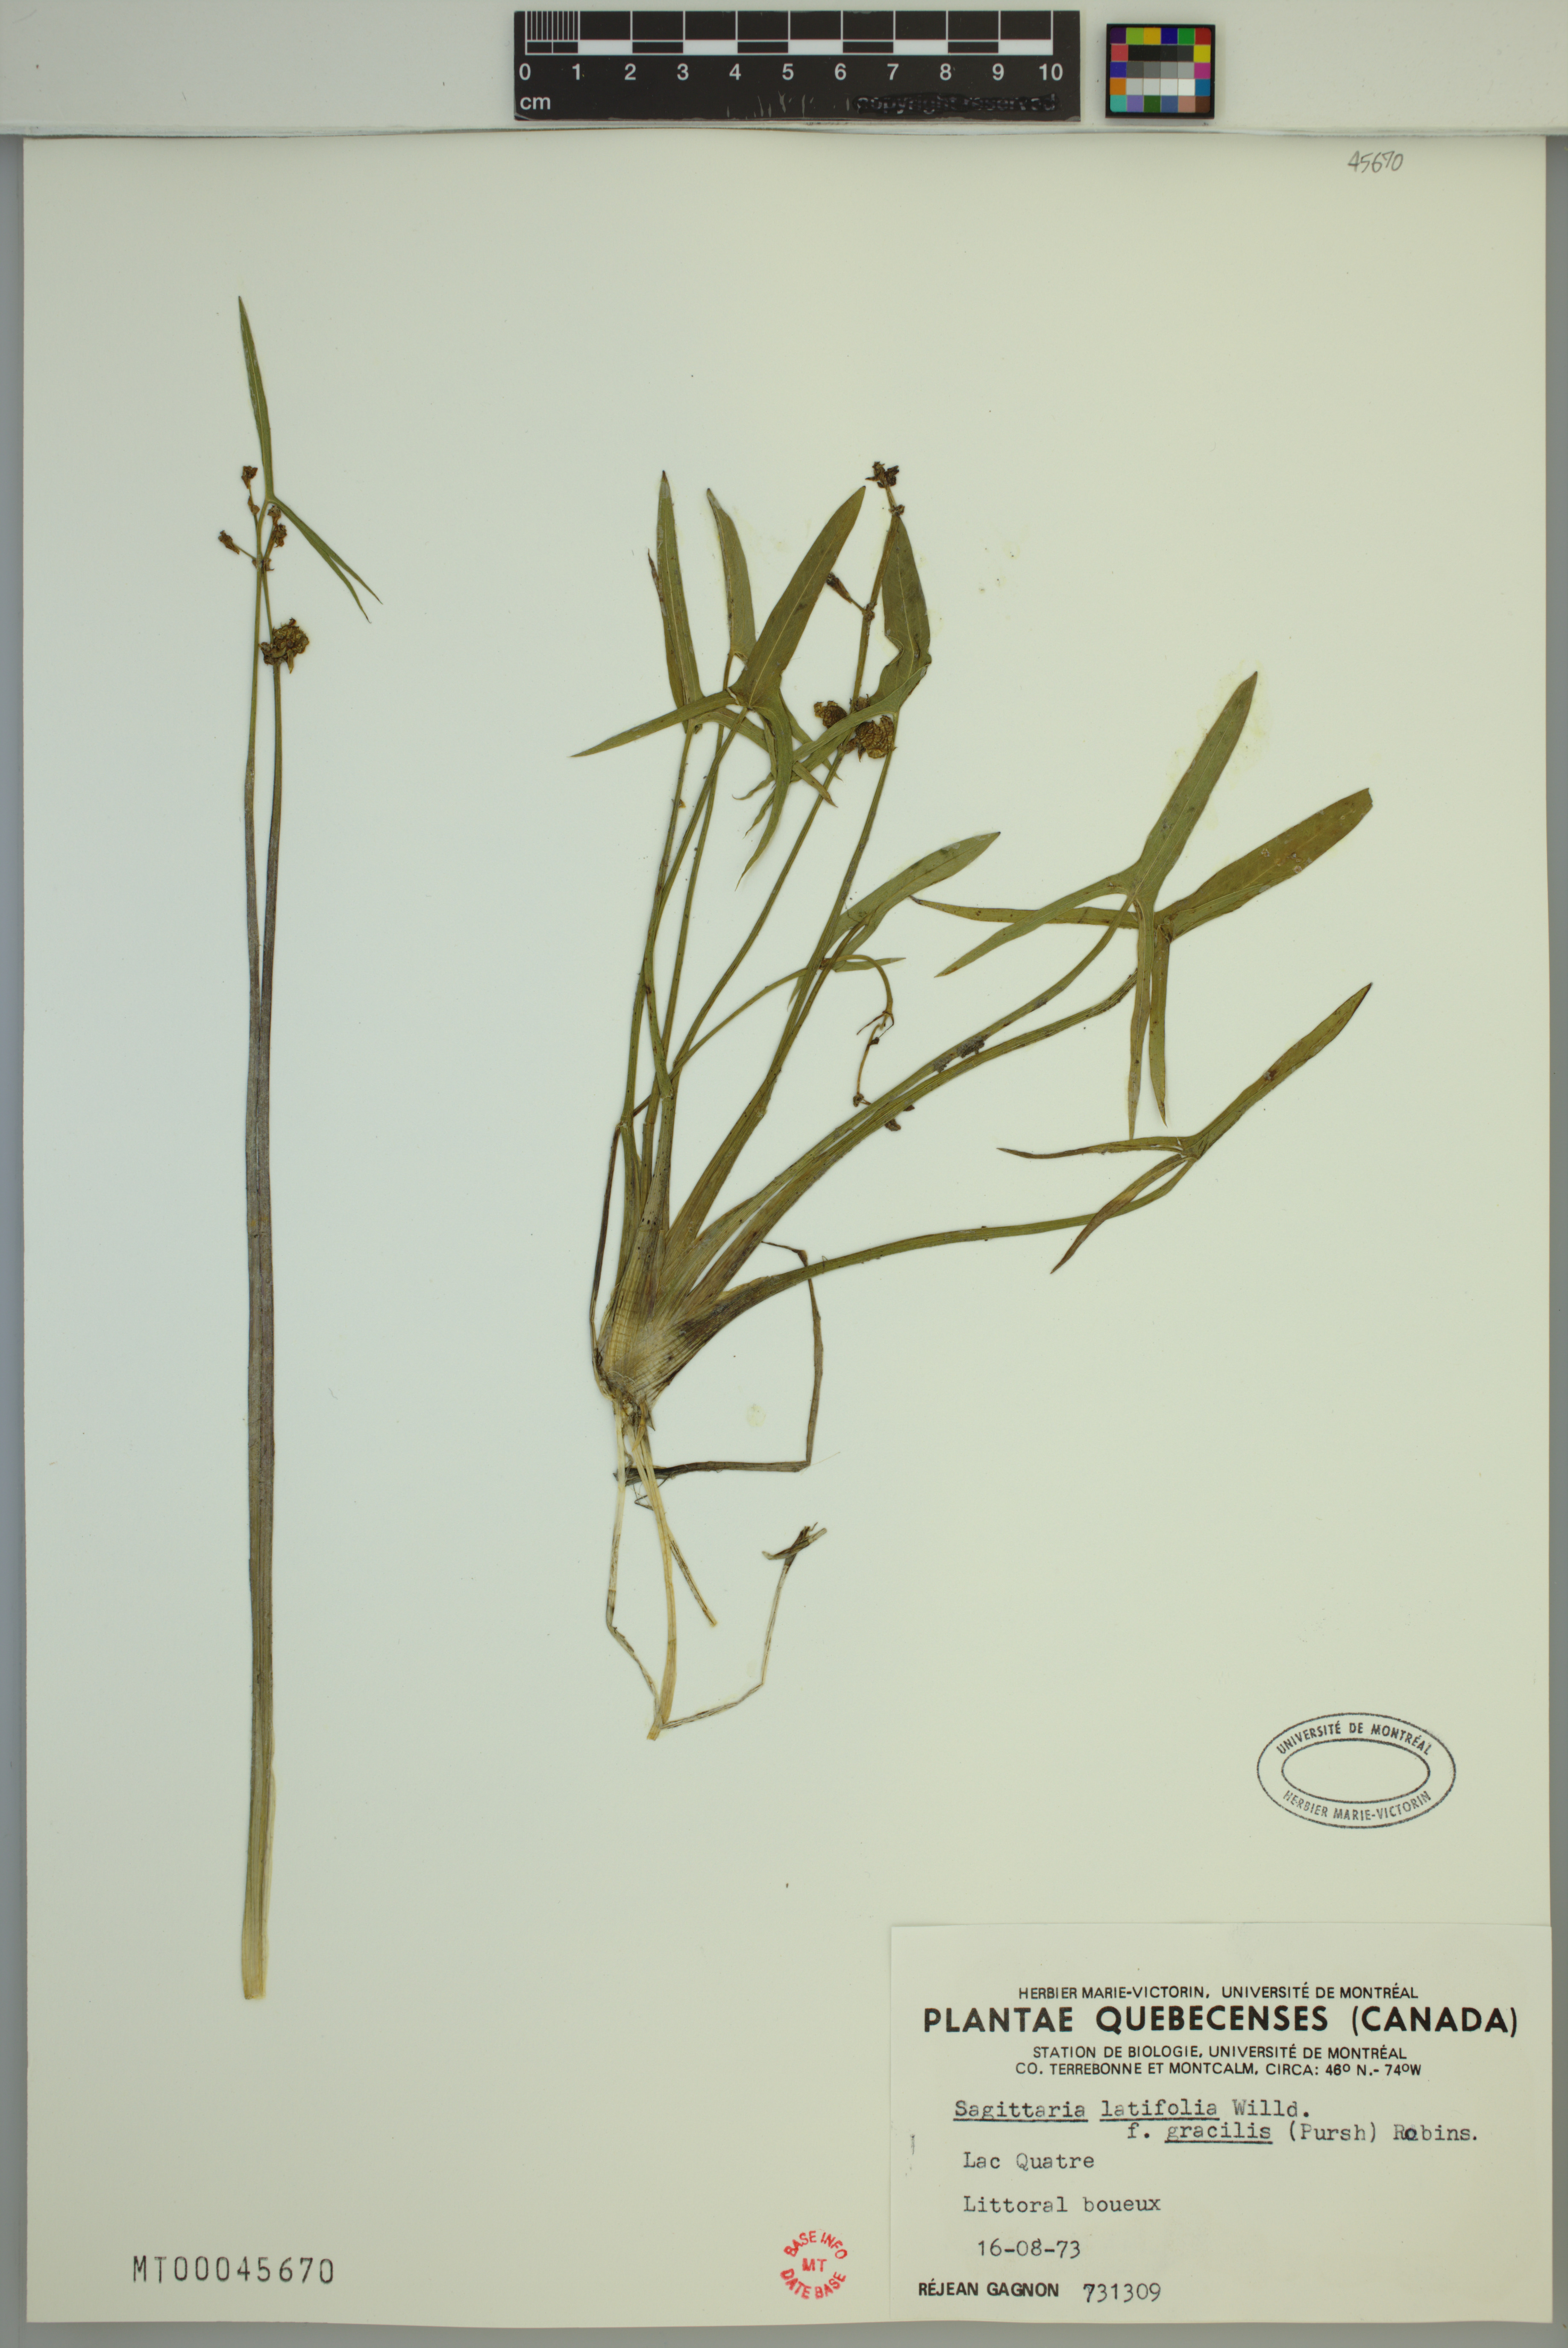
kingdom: Plantae
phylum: Tracheophyta
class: Liliopsida
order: Alismatales
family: Alismataceae
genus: Sagittaria
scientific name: Sagittaria latifolia
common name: Duck-potato
